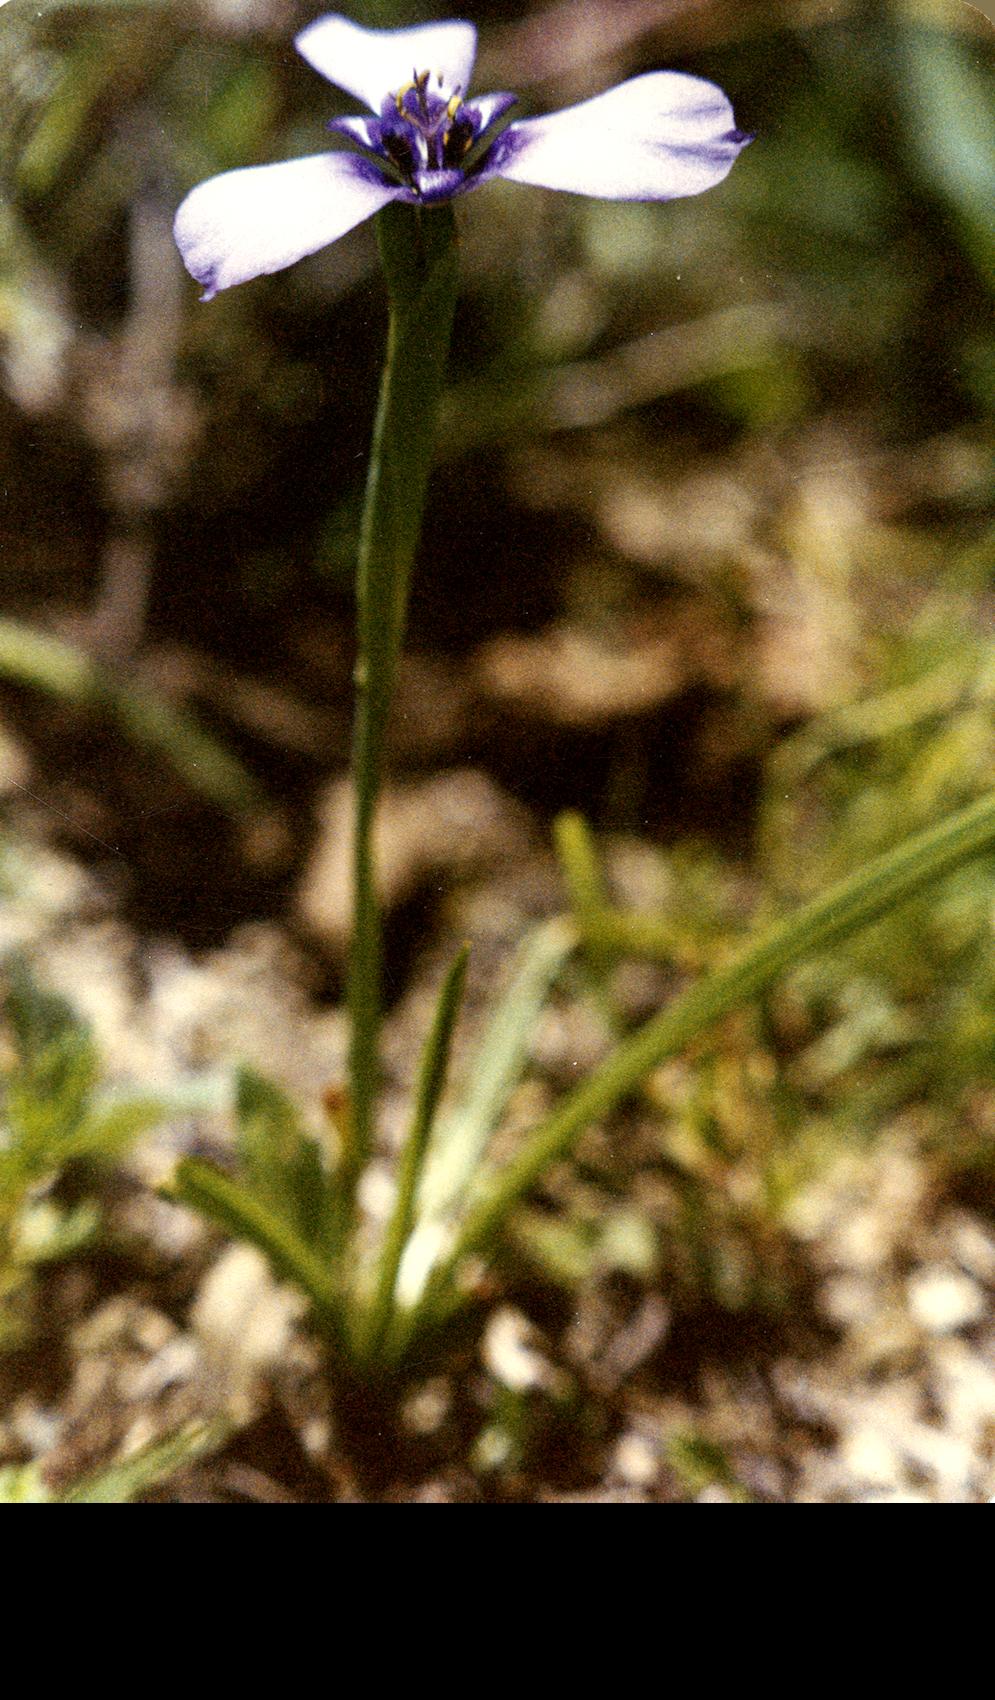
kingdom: Plantae
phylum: Tracheophyta
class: Liliopsida
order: Asparagales
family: Iridaceae
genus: Tigridia
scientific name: Tigridia
